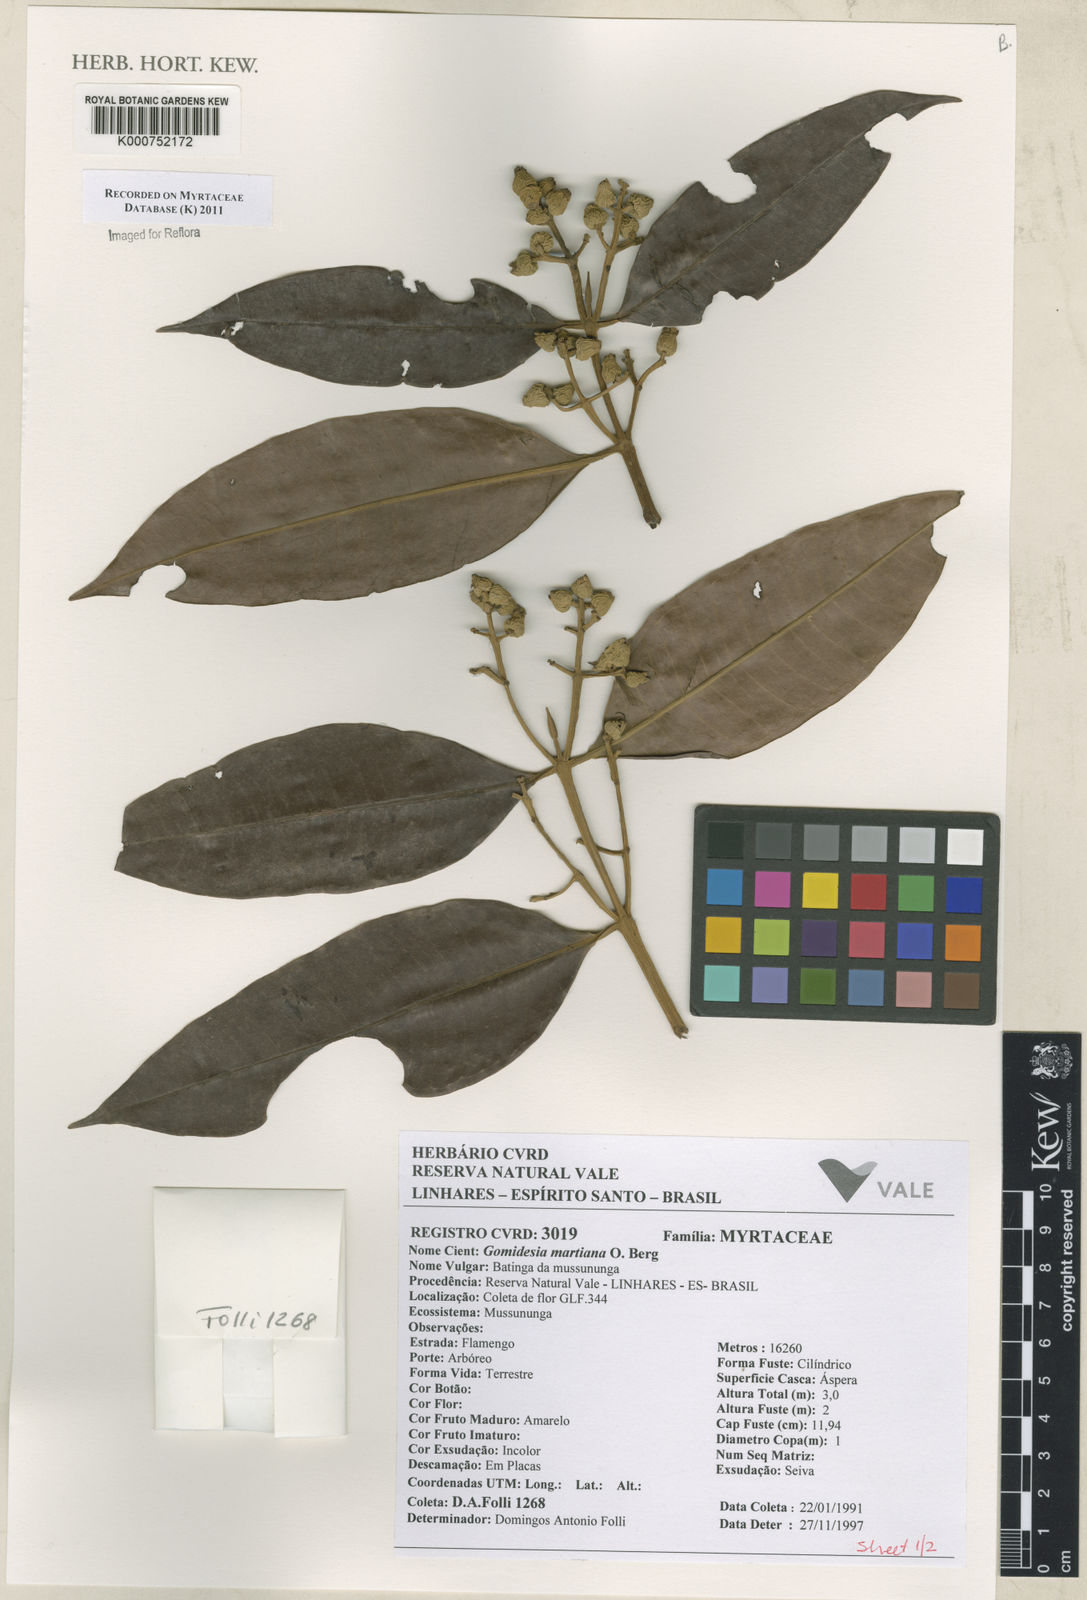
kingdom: Plantae
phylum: Tracheophyta
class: Magnoliopsida
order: Myrtales
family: Myrtaceae
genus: Myrcia
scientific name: Myrcia vittoriana
